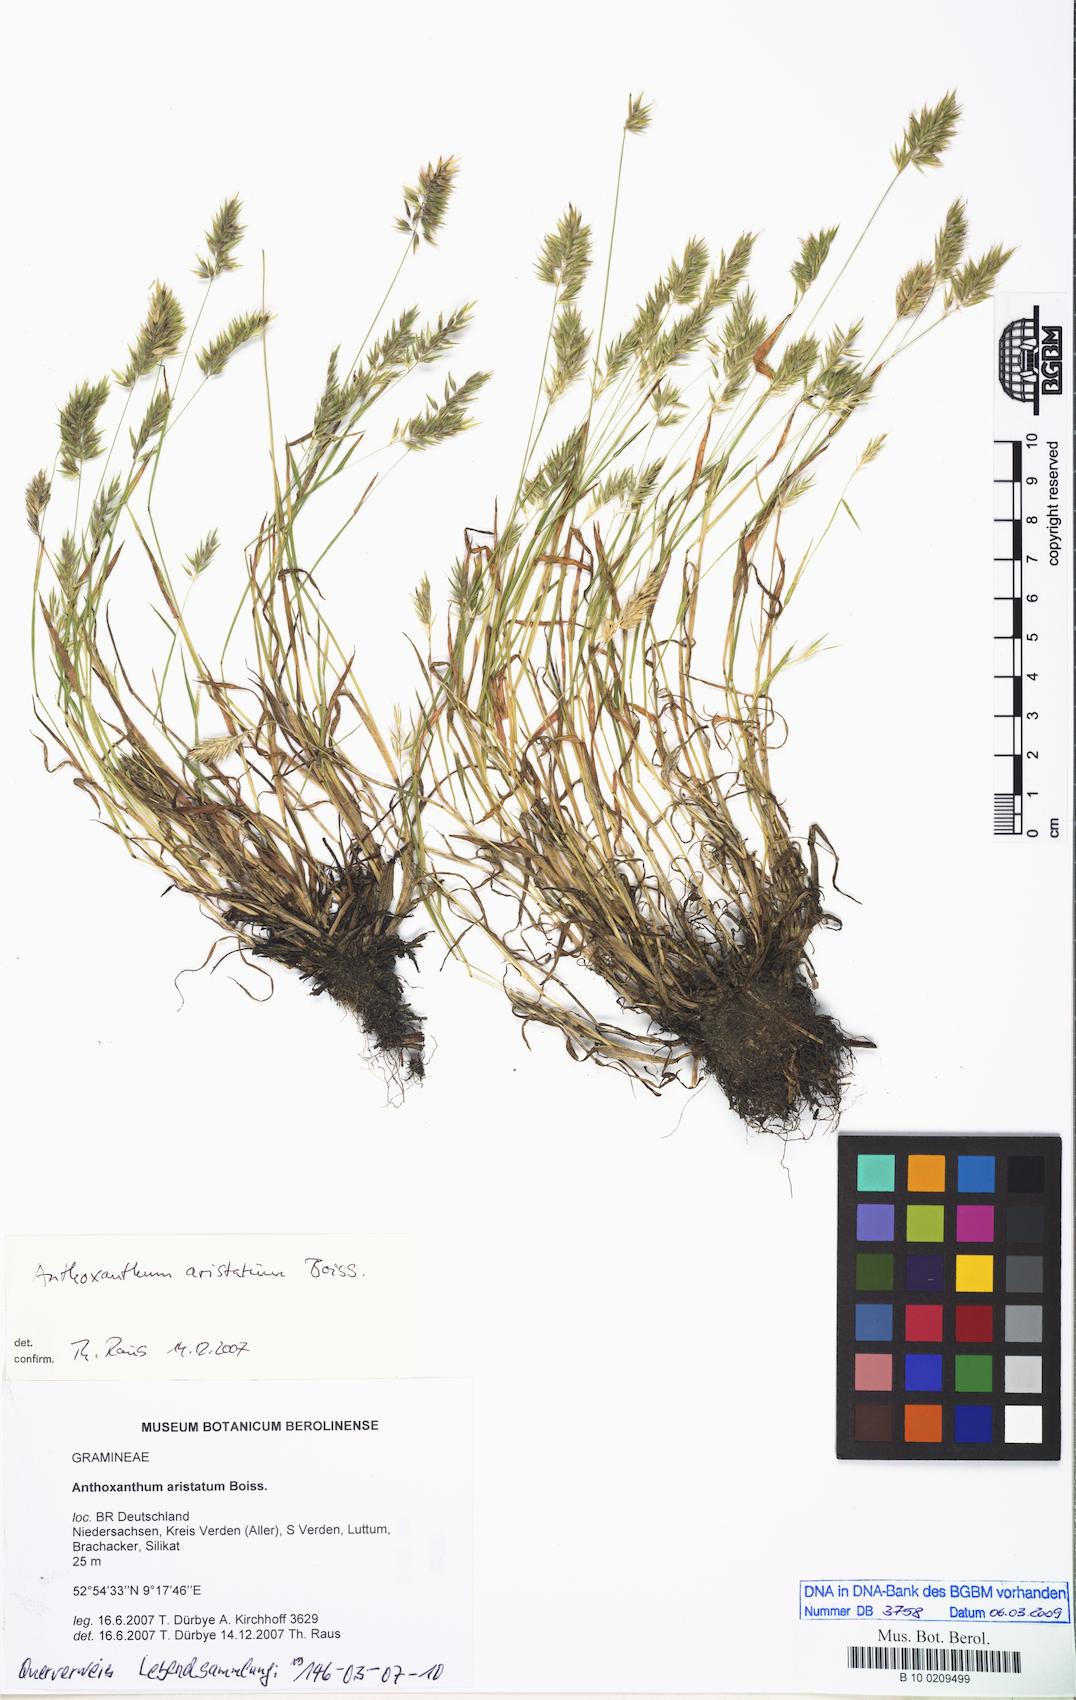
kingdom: Plantae
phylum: Tracheophyta
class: Liliopsida
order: Poales
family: Poaceae
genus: Anthoxanthum
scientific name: Anthoxanthum aristatum
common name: Annual vernal-grass
